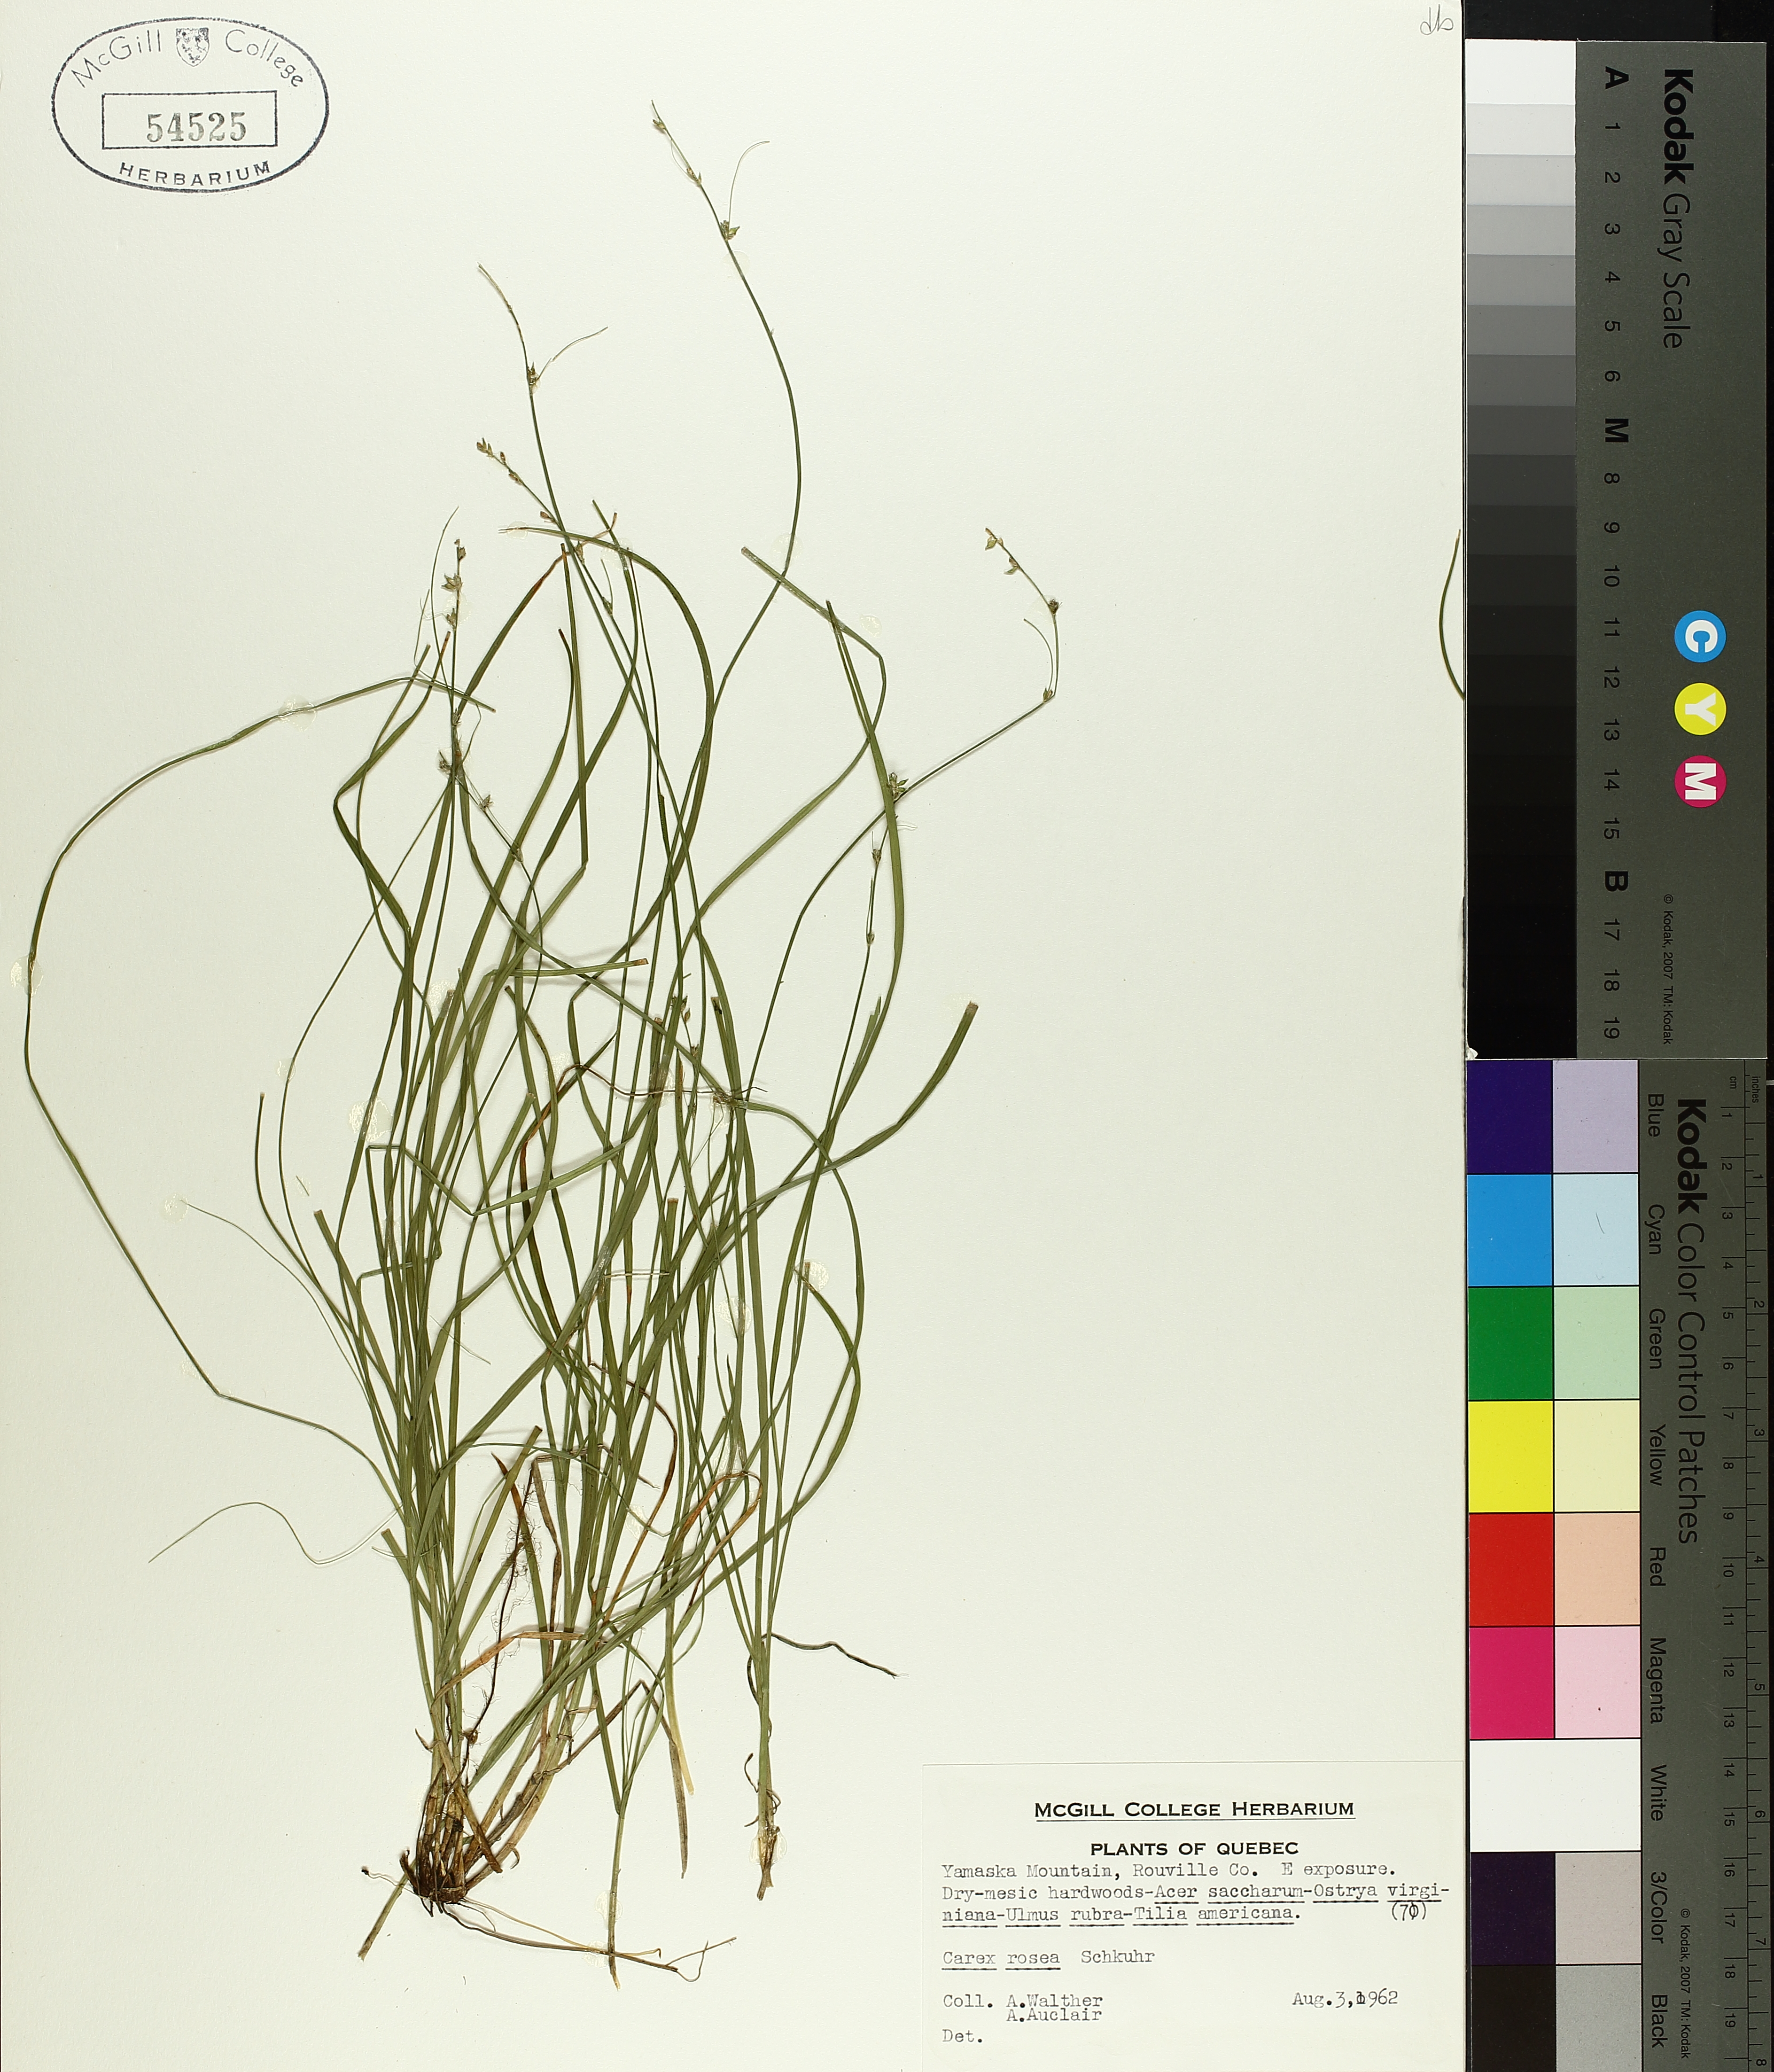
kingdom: Plantae
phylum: Tracheophyta
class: Liliopsida
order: Poales
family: Cyperaceae
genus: Carex
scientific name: Carex rosea
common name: Curly-styled wood sedge
